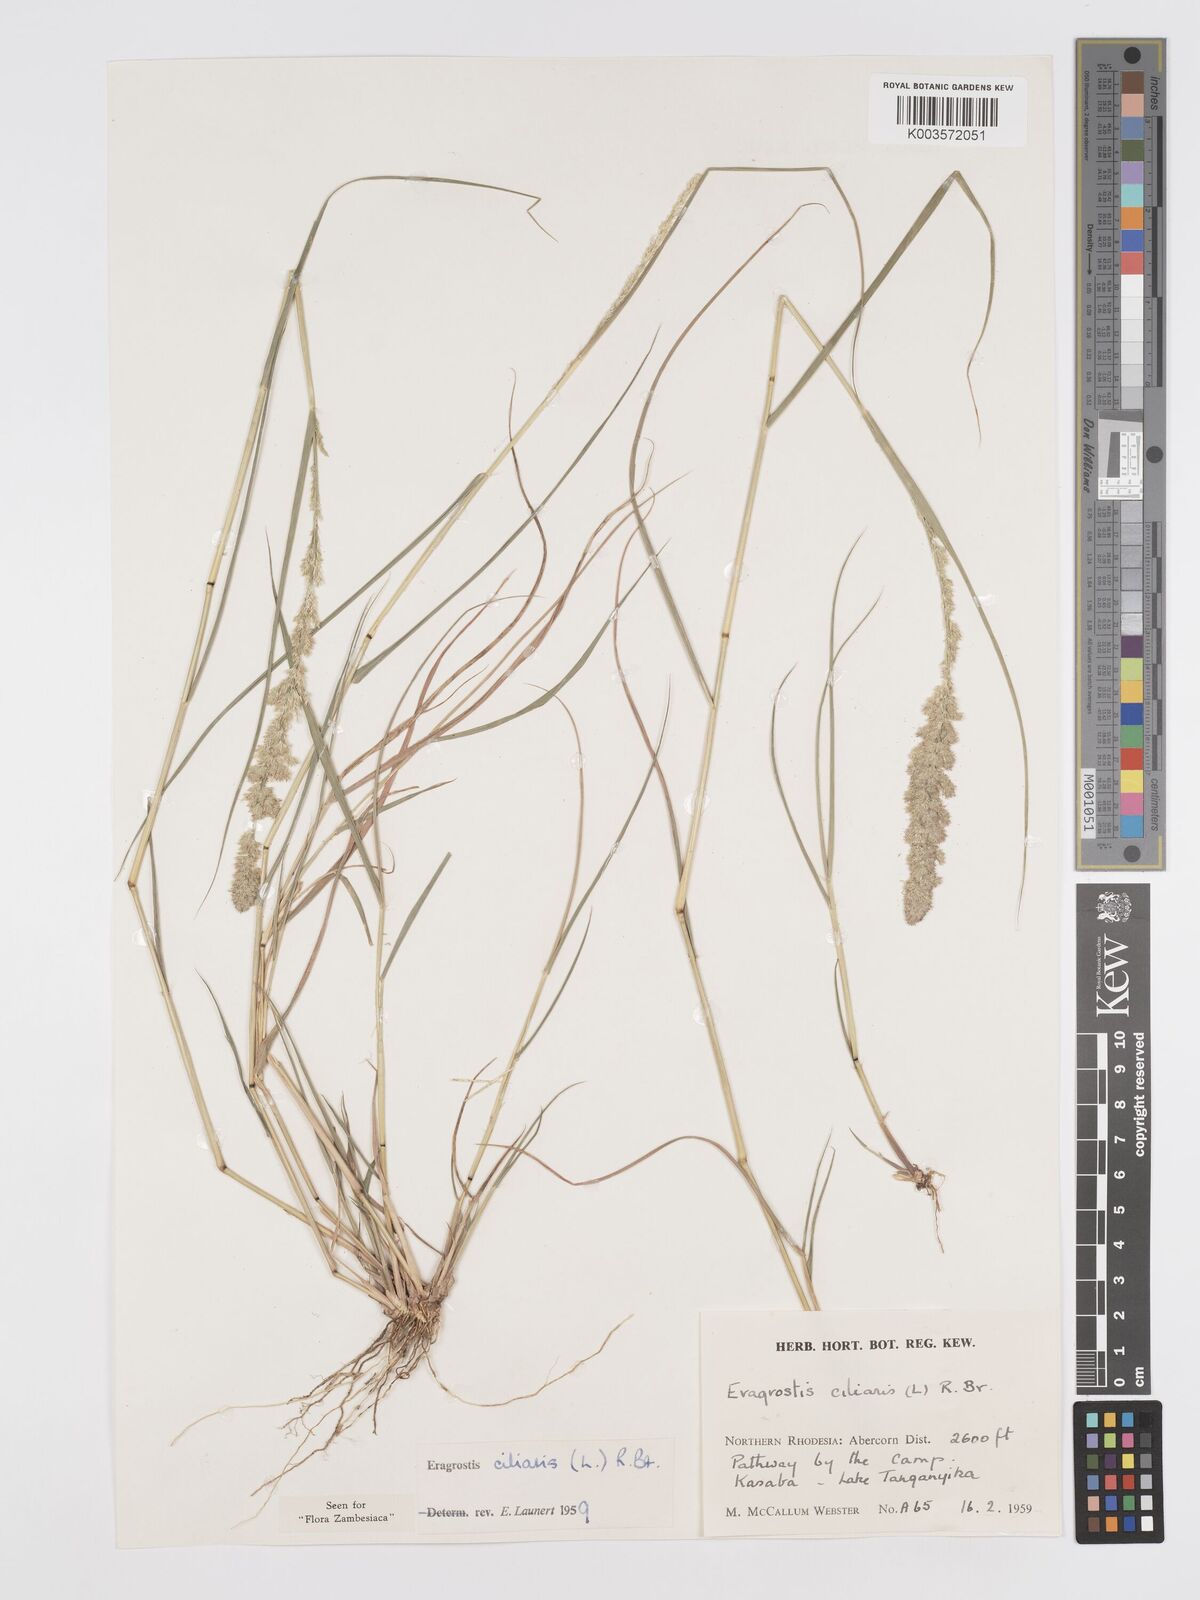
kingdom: Plantae
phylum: Tracheophyta
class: Liliopsida
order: Poales
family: Poaceae
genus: Eragrostis
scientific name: Eragrostis ciliaris
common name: Gophertail lovegrass
